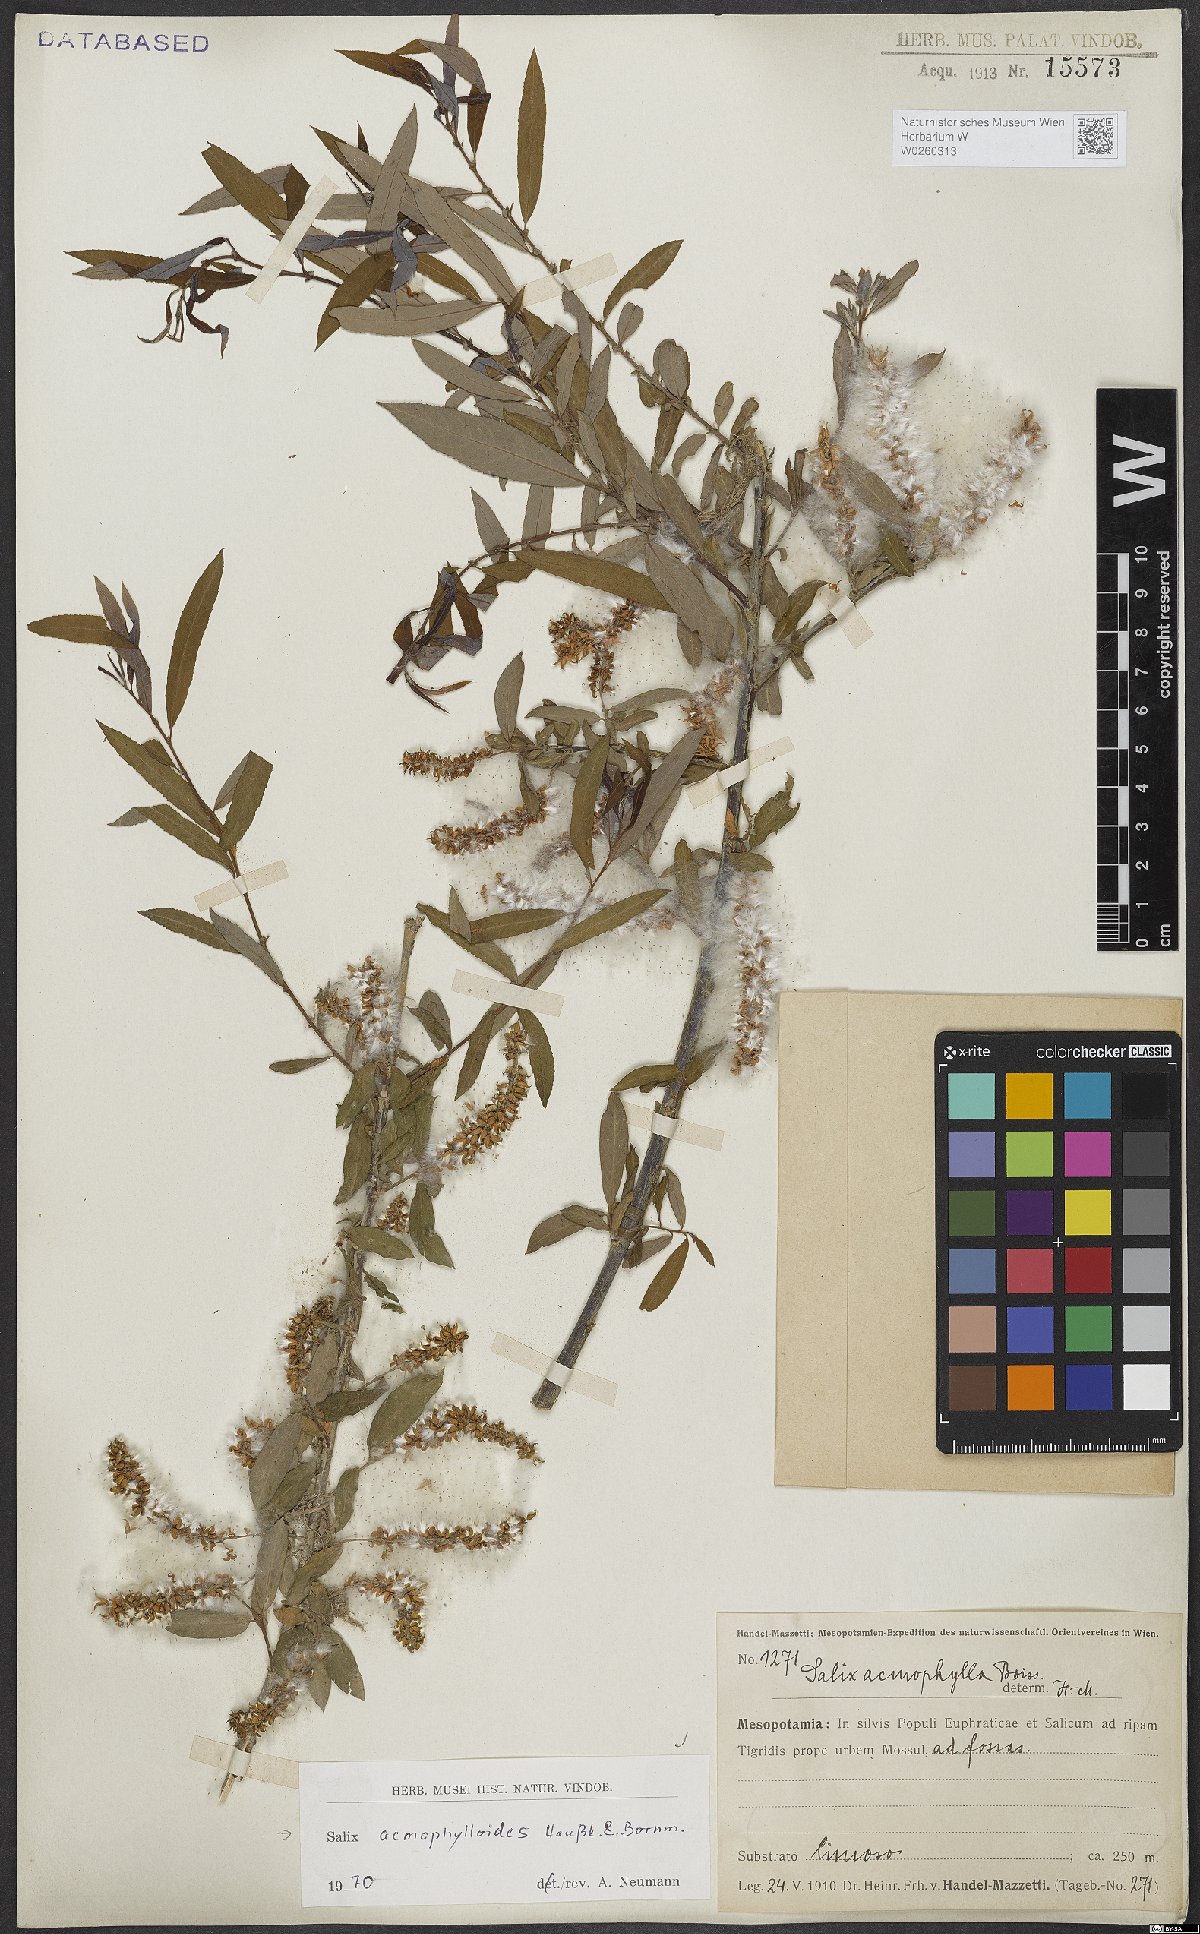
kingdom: Plantae
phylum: Tracheophyta
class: Magnoliopsida
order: Malpighiales
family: Salicaceae
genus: Salix
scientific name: Salix
